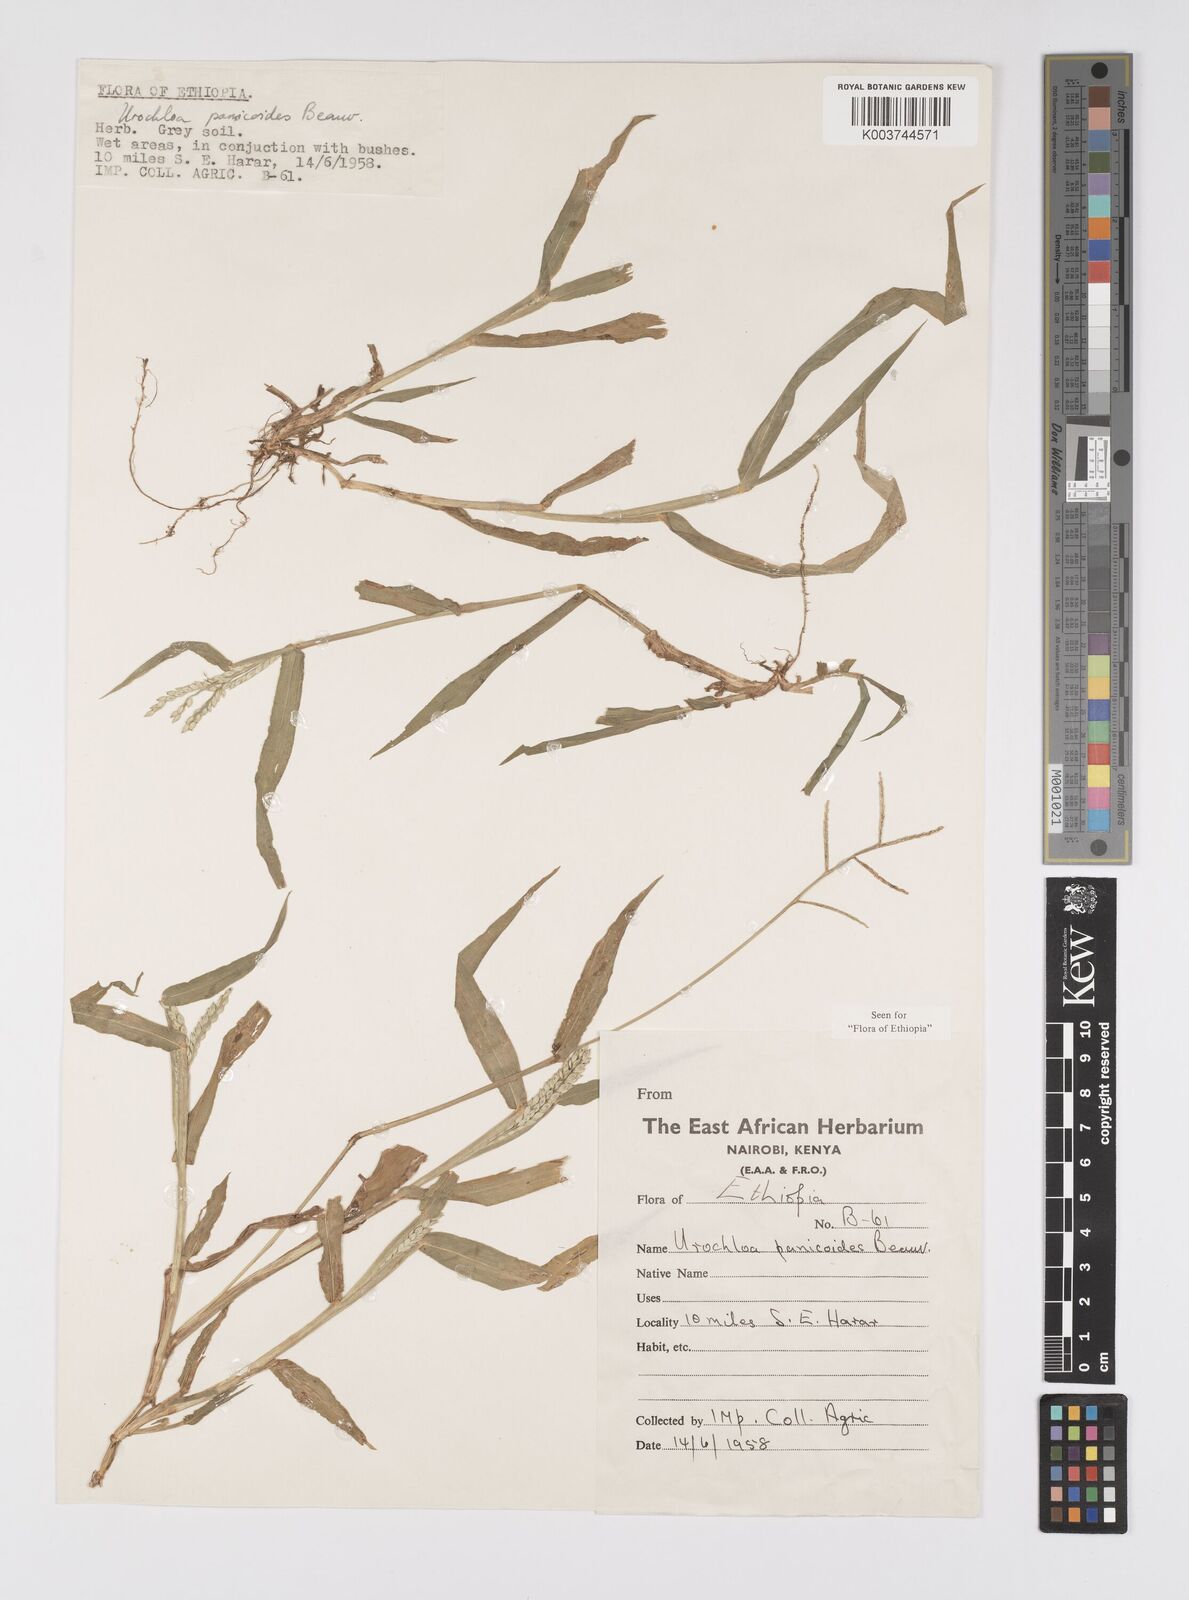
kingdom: Plantae
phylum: Tracheophyta
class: Liliopsida
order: Poales
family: Poaceae
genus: Urochloa
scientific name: Urochloa panicoides
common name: Sharp-flowered signal-grass
